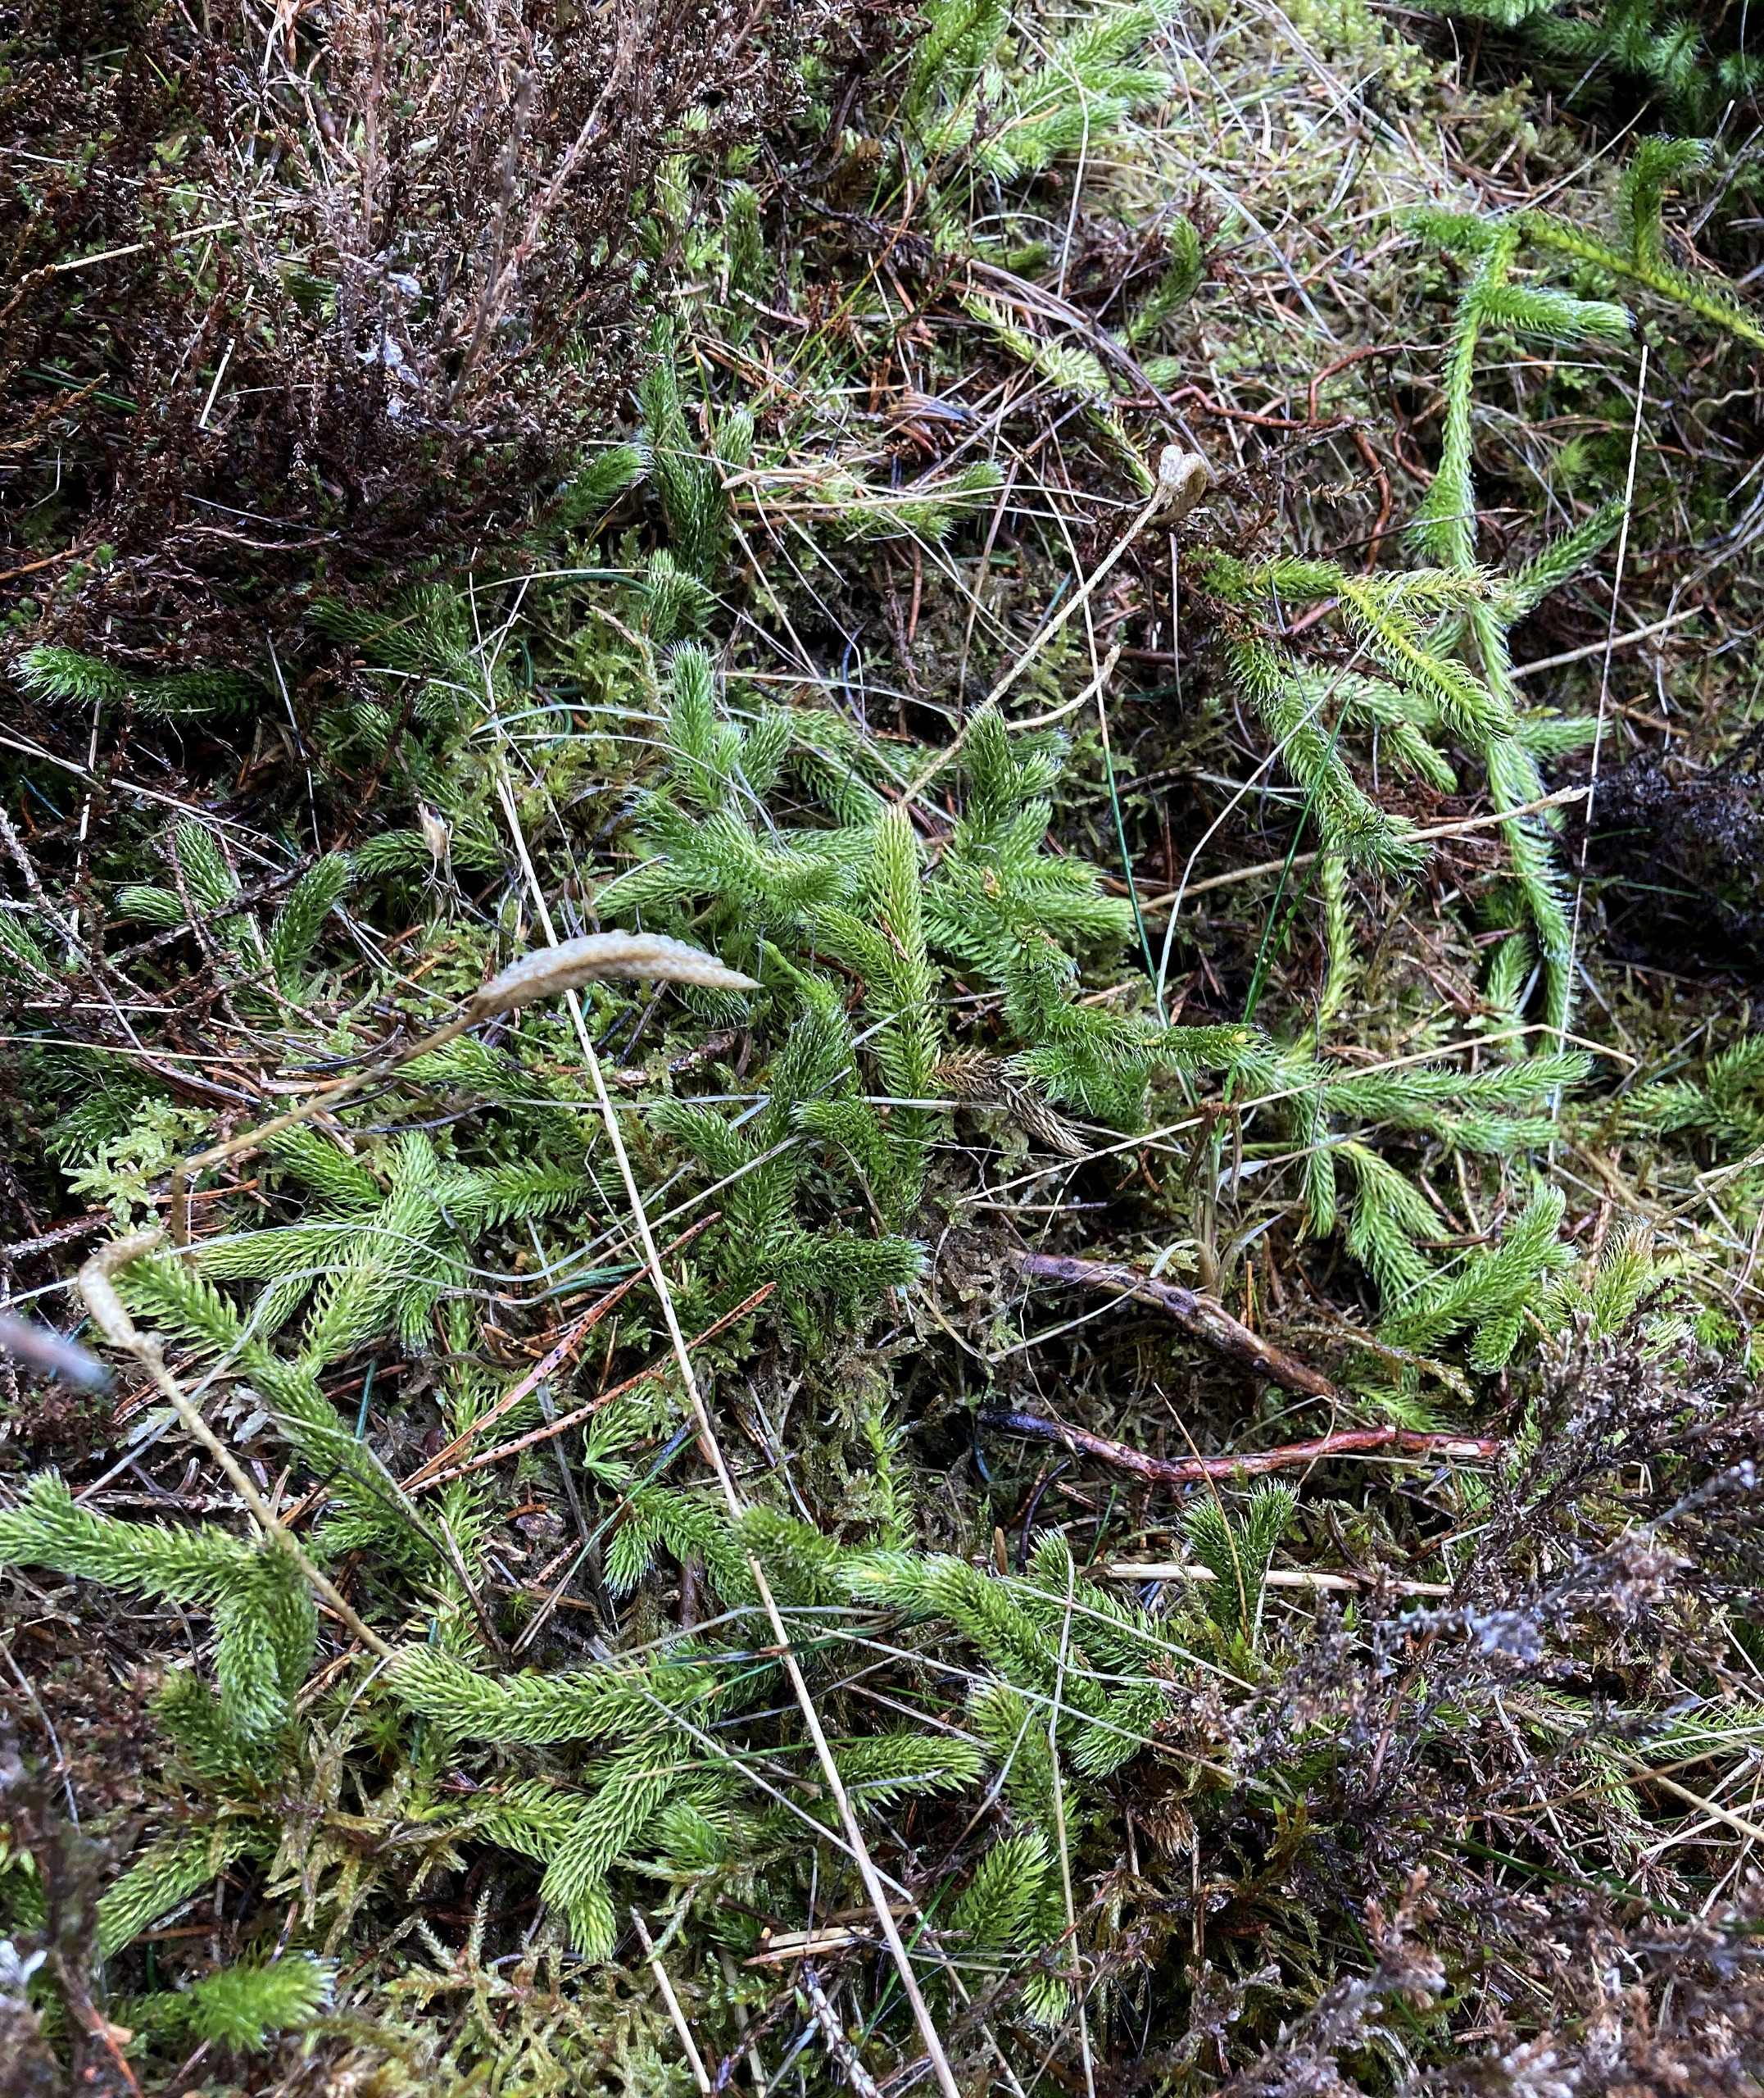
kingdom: Plantae
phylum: Tracheophyta
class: Lycopodiopsida
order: Lycopodiales
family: Lycopodiaceae
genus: Lycopodium
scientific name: Lycopodium clavatum
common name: Almindelig ulvefod
